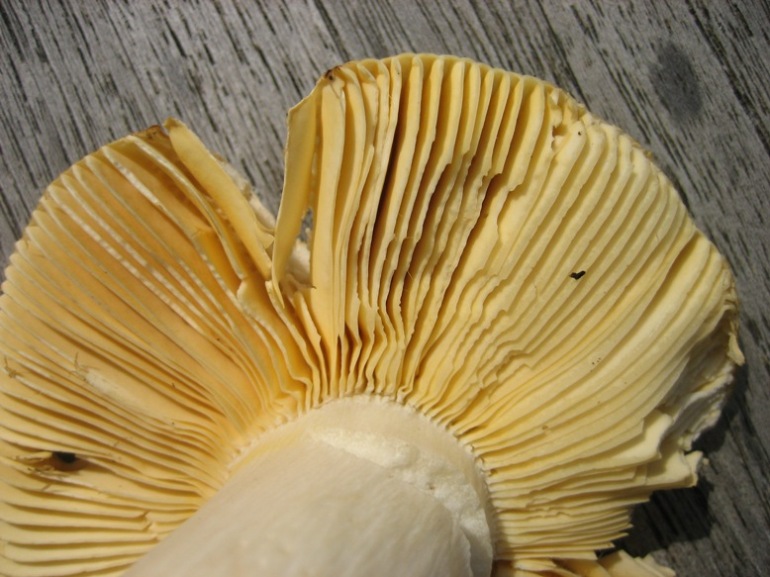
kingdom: Fungi
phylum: Basidiomycota
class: Agaricomycetes
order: Russulales
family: Russulaceae
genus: Russula
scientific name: Russula romellii
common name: romells skørhat
